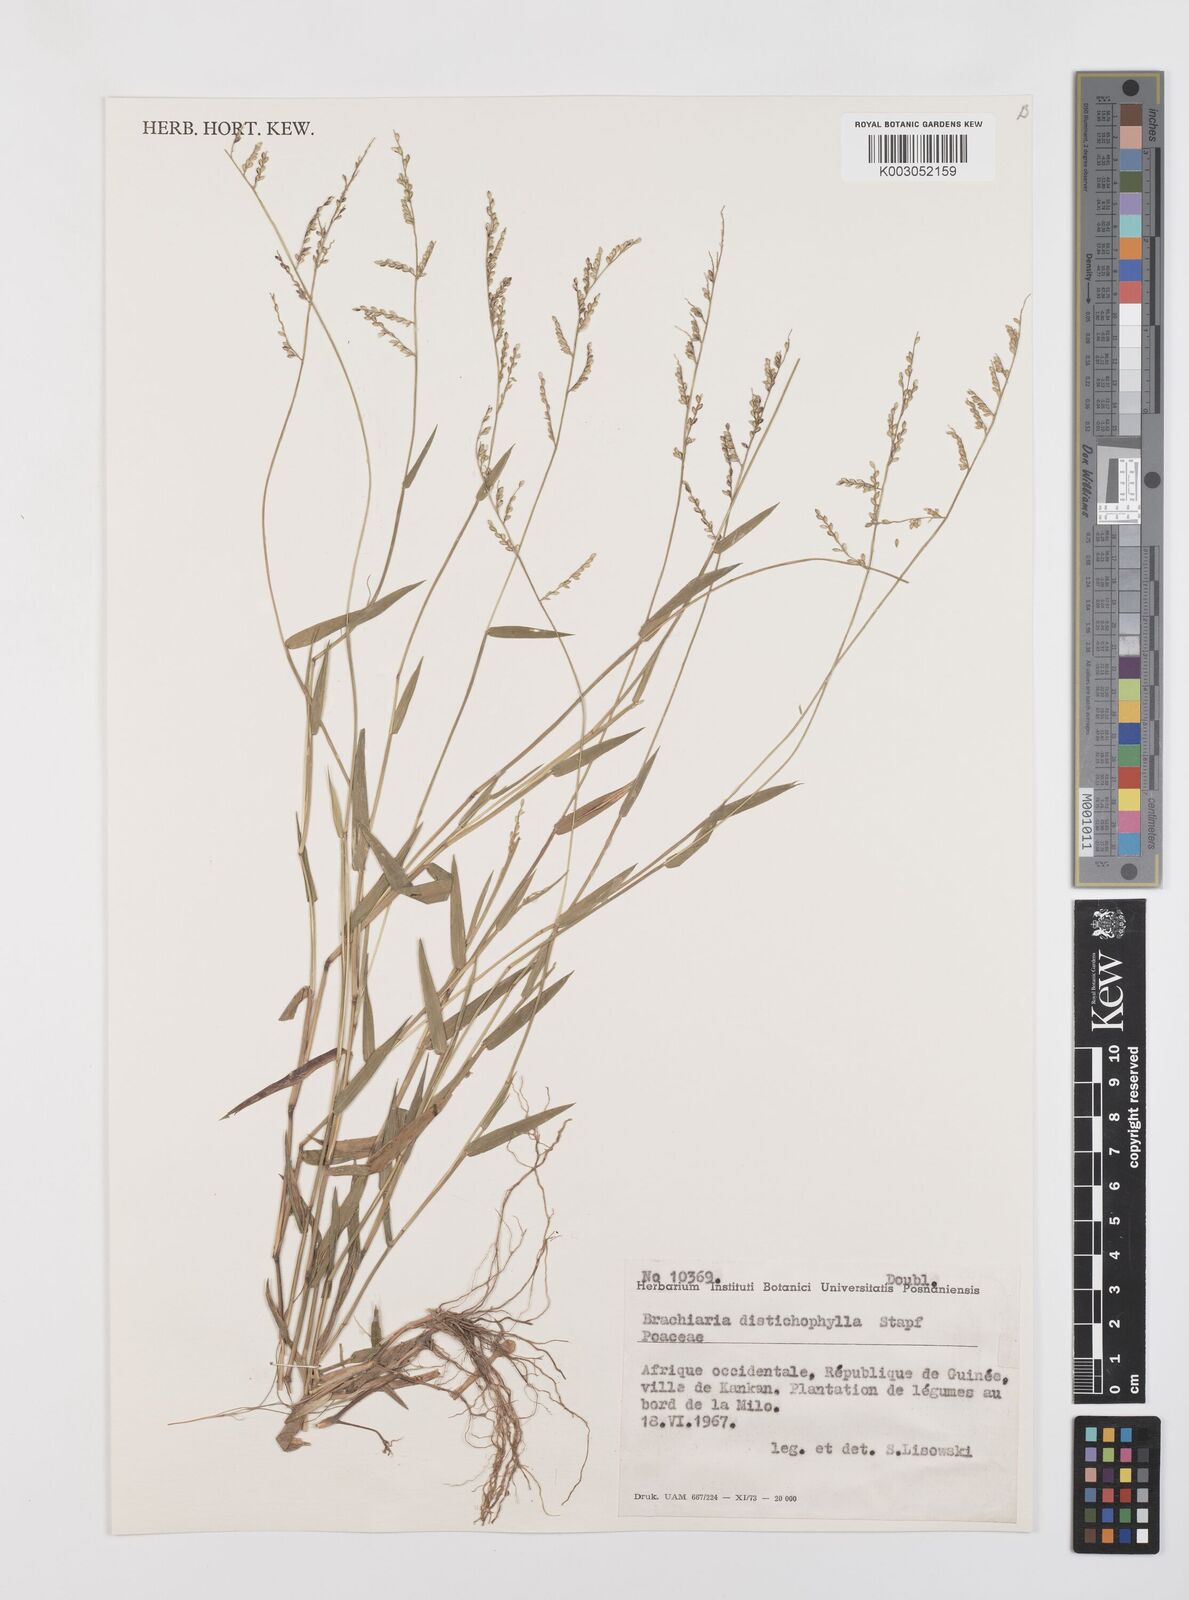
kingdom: Plantae
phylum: Tracheophyta
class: Liliopsida
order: Poales
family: Poaceae
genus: Urochloa
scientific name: Urochloa villosa
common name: Hairy signalgrass
